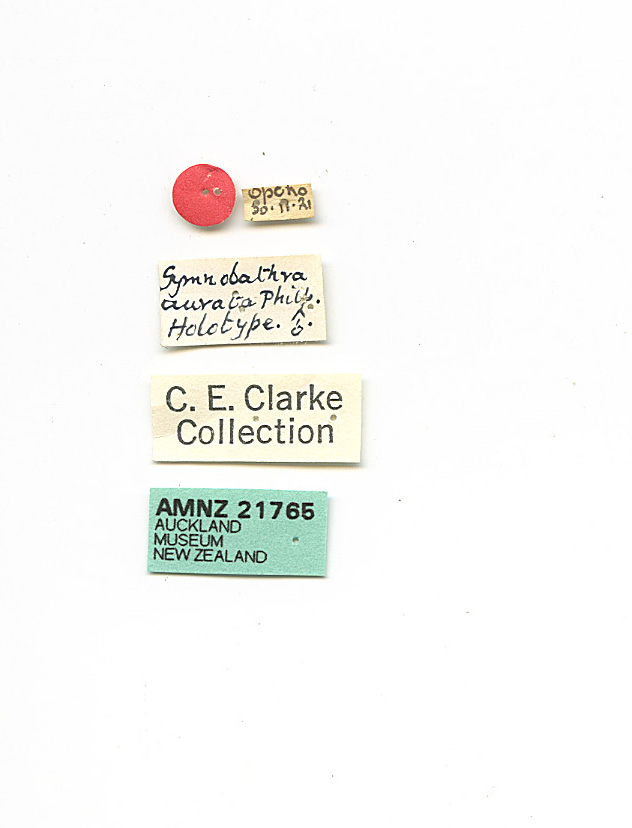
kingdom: Animalia
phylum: Arthropoda
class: Insecta
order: Lepidoptera
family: Oecophoridae
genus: Tingena
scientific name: Tingena aurata
